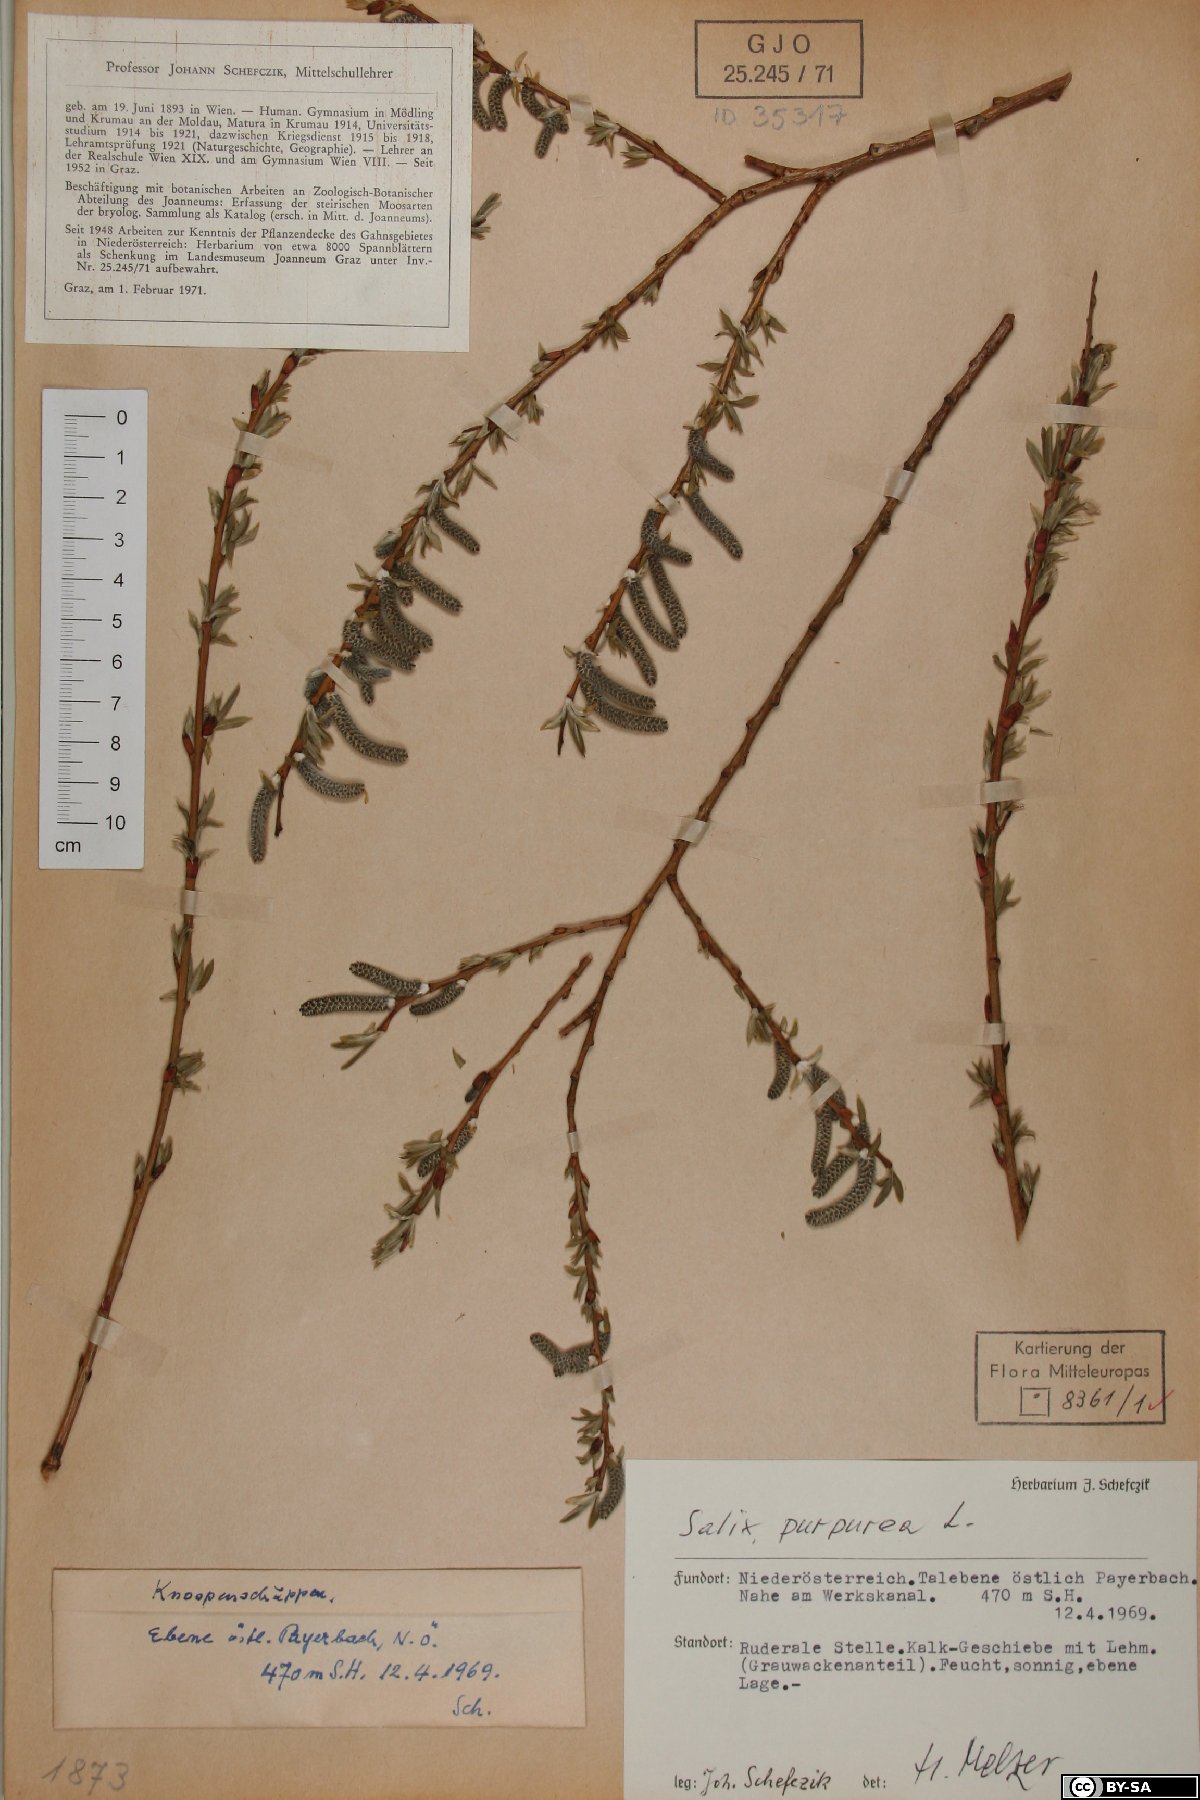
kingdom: Plantae
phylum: Tracheophyta
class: Magnoliopsida
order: Malpighiales
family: Salicaceae
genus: Salix
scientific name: Salix purpurea
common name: Purple willow
